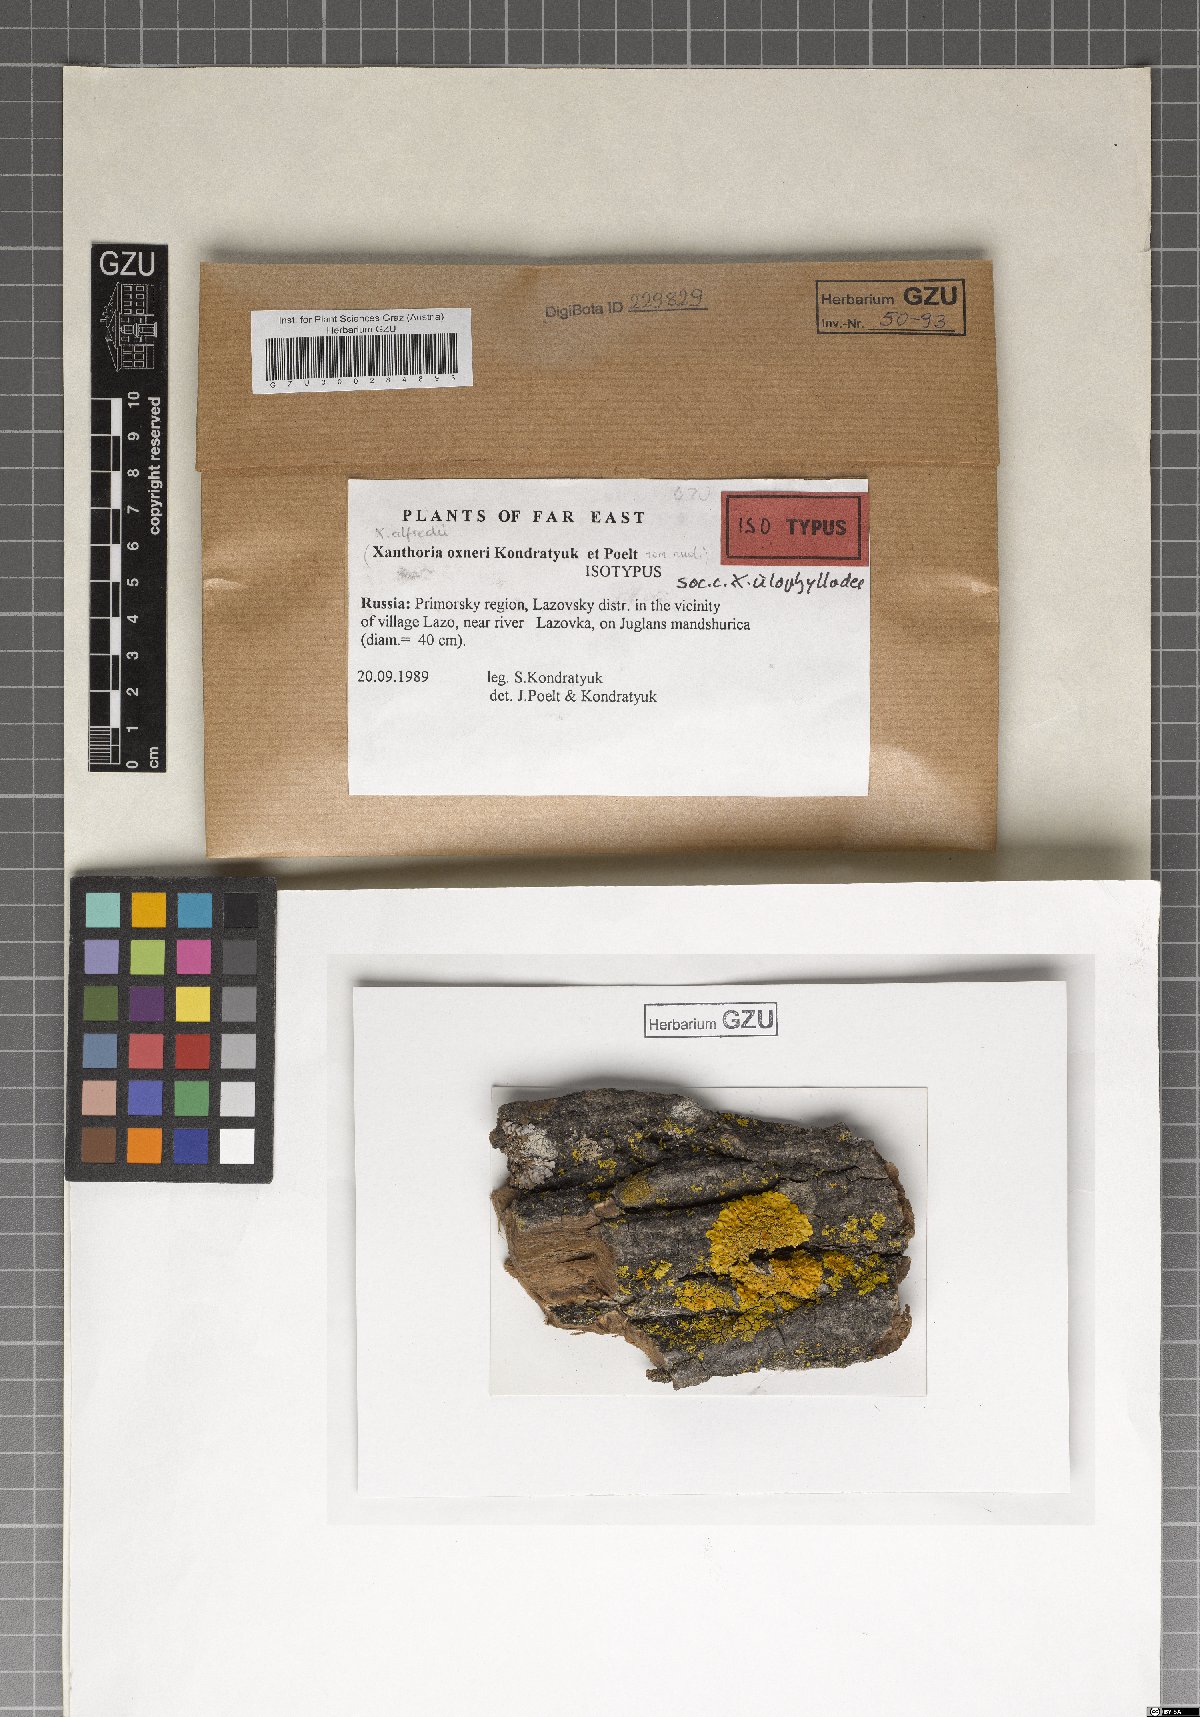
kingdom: Fungi
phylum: Ascomycota
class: Lecanoromycetes
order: Teloschistales
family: Teloschistaceae
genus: Oxneria
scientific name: Oxneria alfredii
